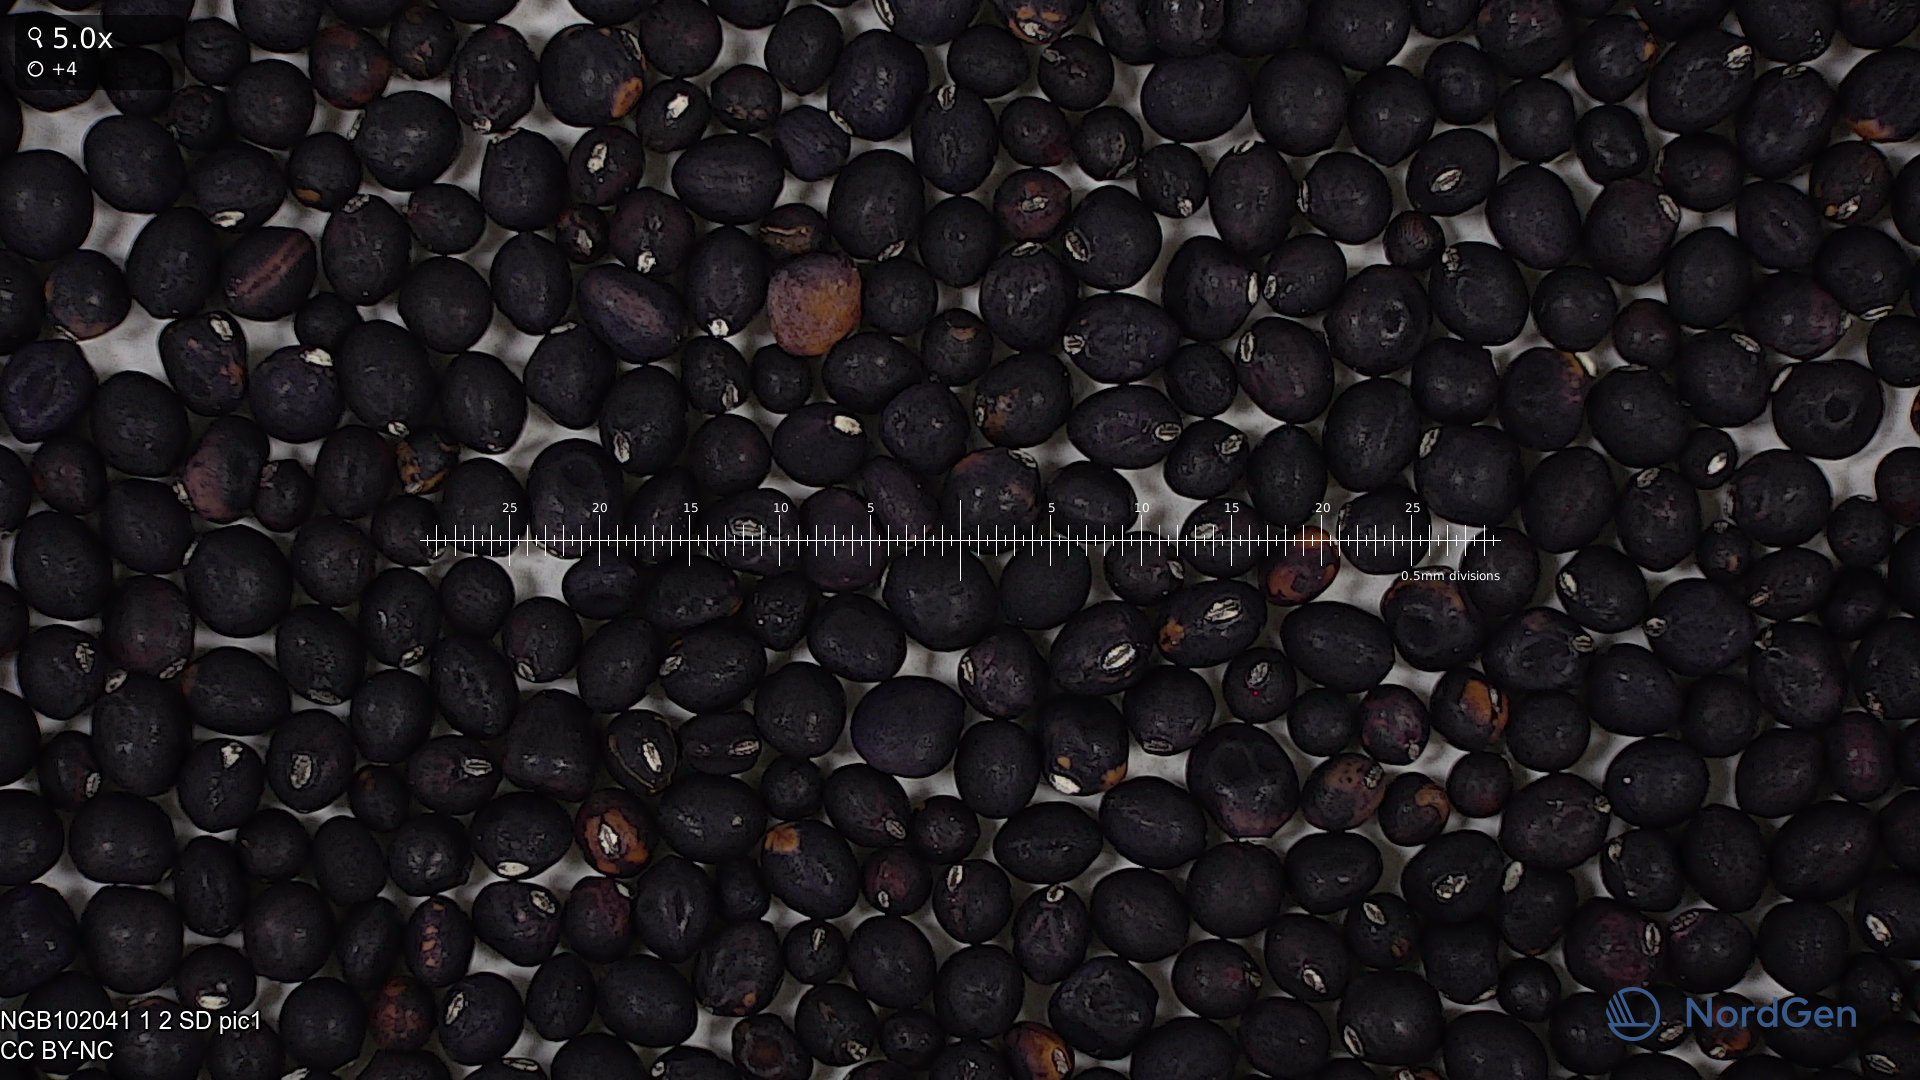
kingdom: Plantae
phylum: Tracheophyta
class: Magnoliopsida
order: Fabales
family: Fabaceae
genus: Lathyrus
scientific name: Lathyrus oleraceus
